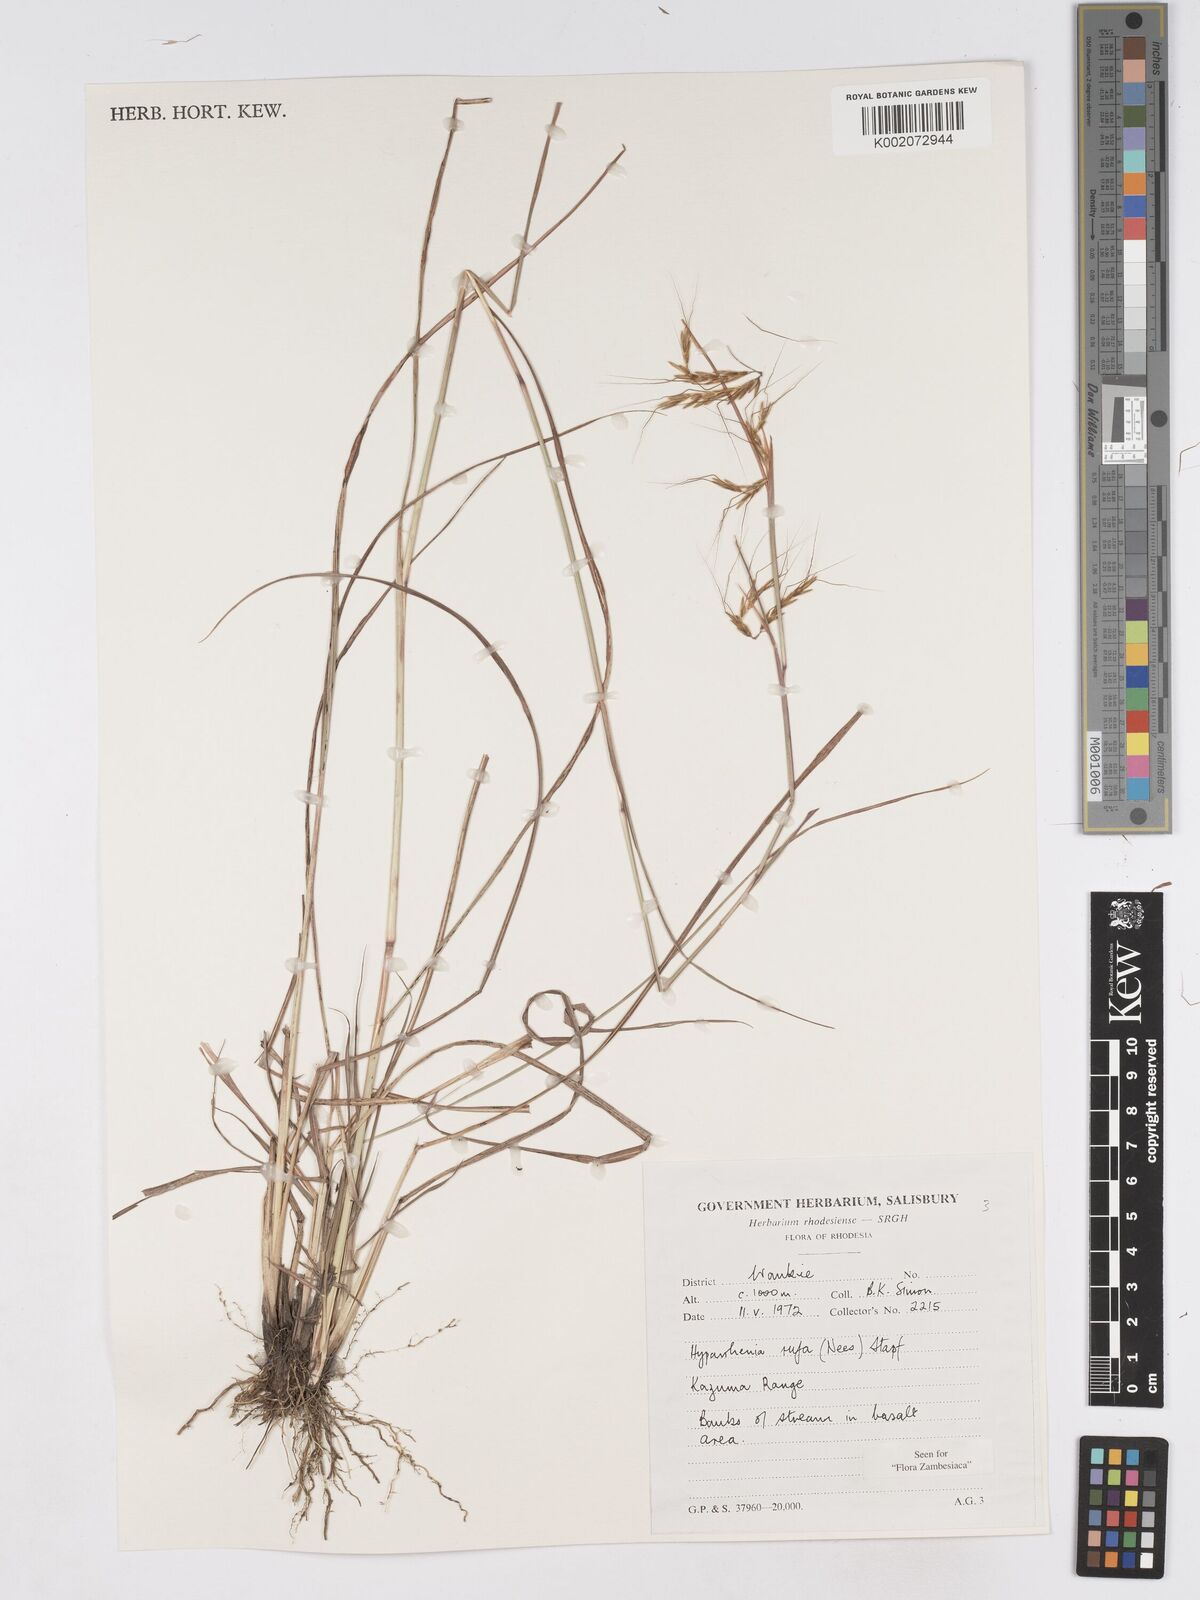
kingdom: Plantae
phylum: Tracheophyta
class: Liliopsida
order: Poales
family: Poaceae
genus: Hyparrhenia
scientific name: Hyparrhenia rufa
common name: Jaraguagrass
